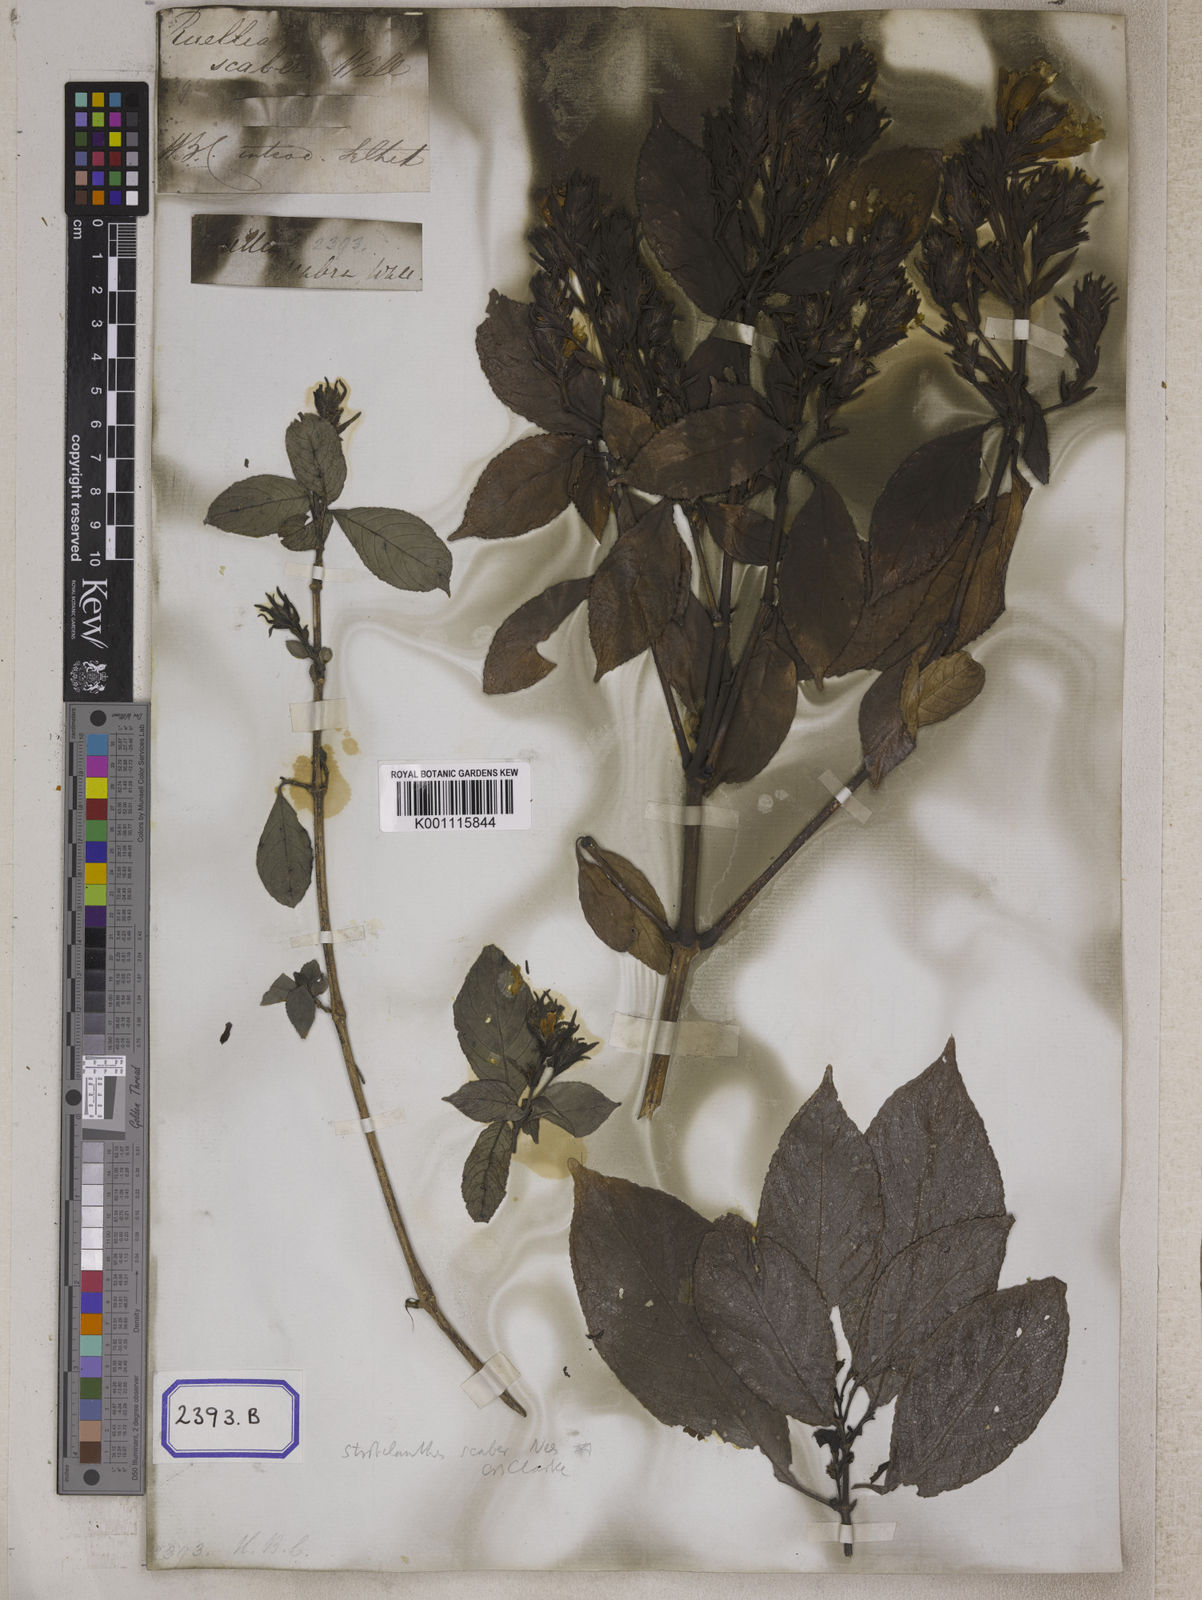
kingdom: Plantae
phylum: Tracheophyta
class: Magnoliopsida
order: Lamiales
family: Acanthaceae
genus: Ruellia
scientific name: Ruellia
